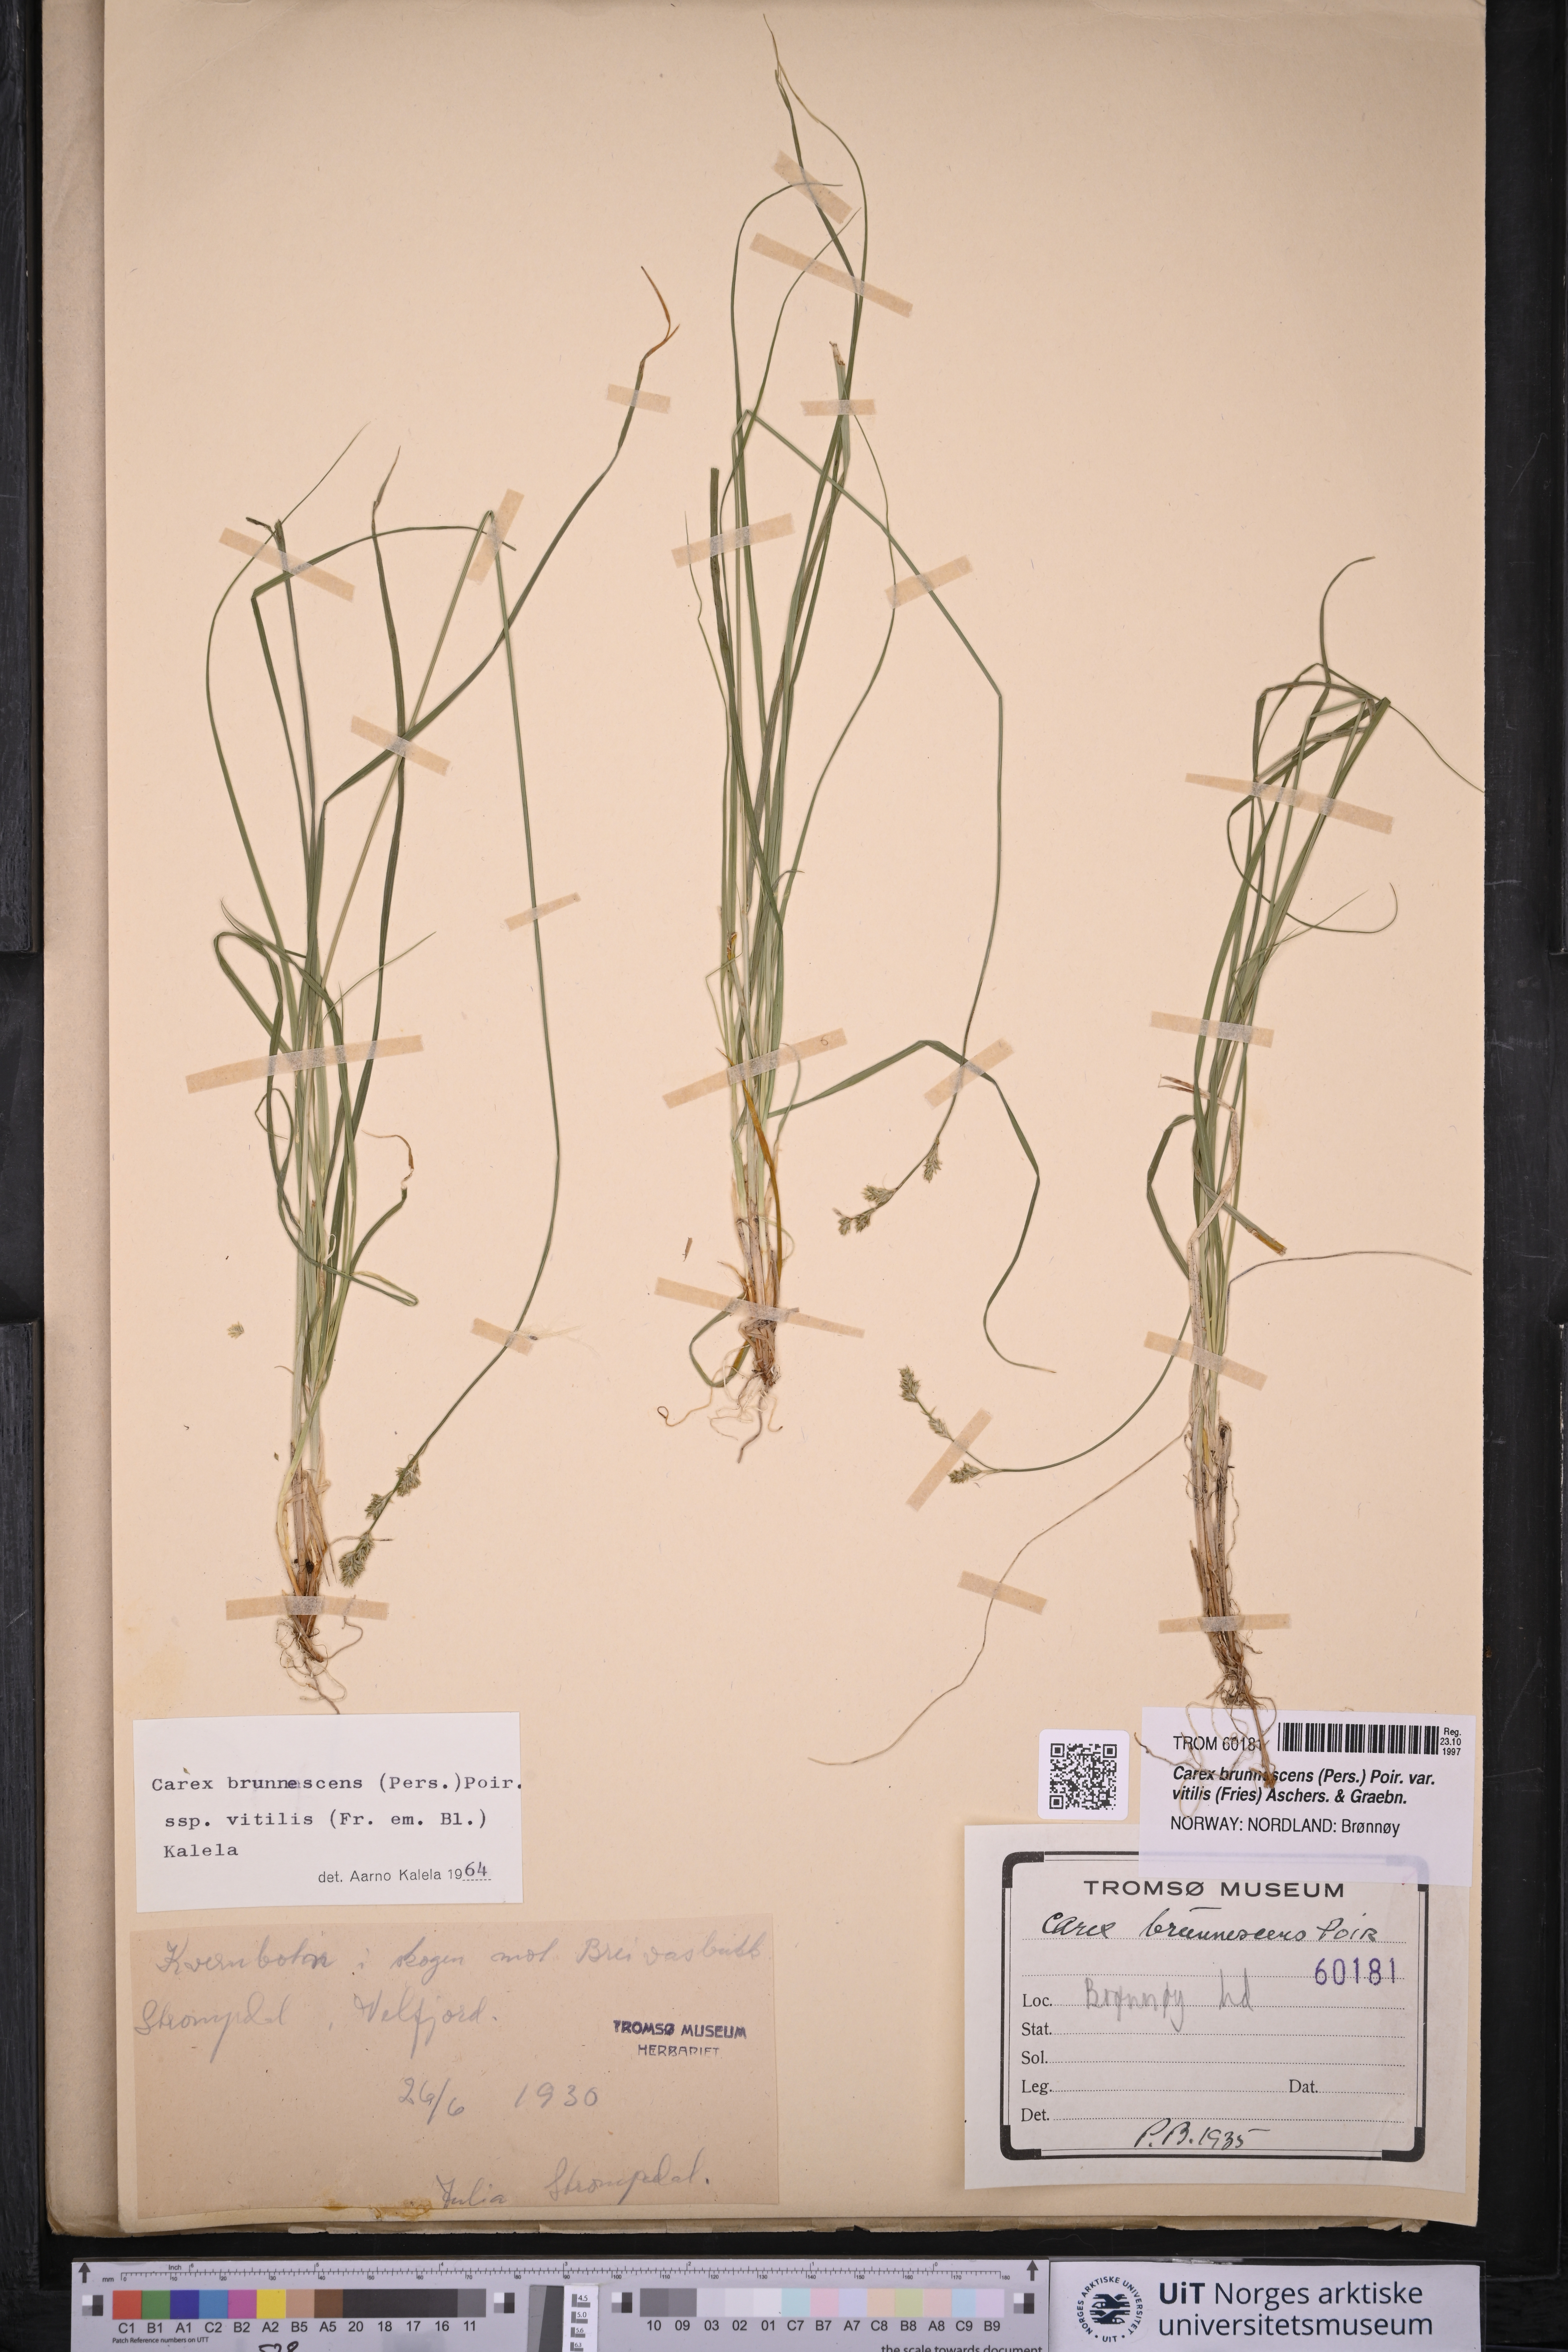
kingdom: Plantae
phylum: Tracheophyta
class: Liliopsida
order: Poales
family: Cyperaceae
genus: Carex
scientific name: Carex brunnescens
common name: Brown sedge
